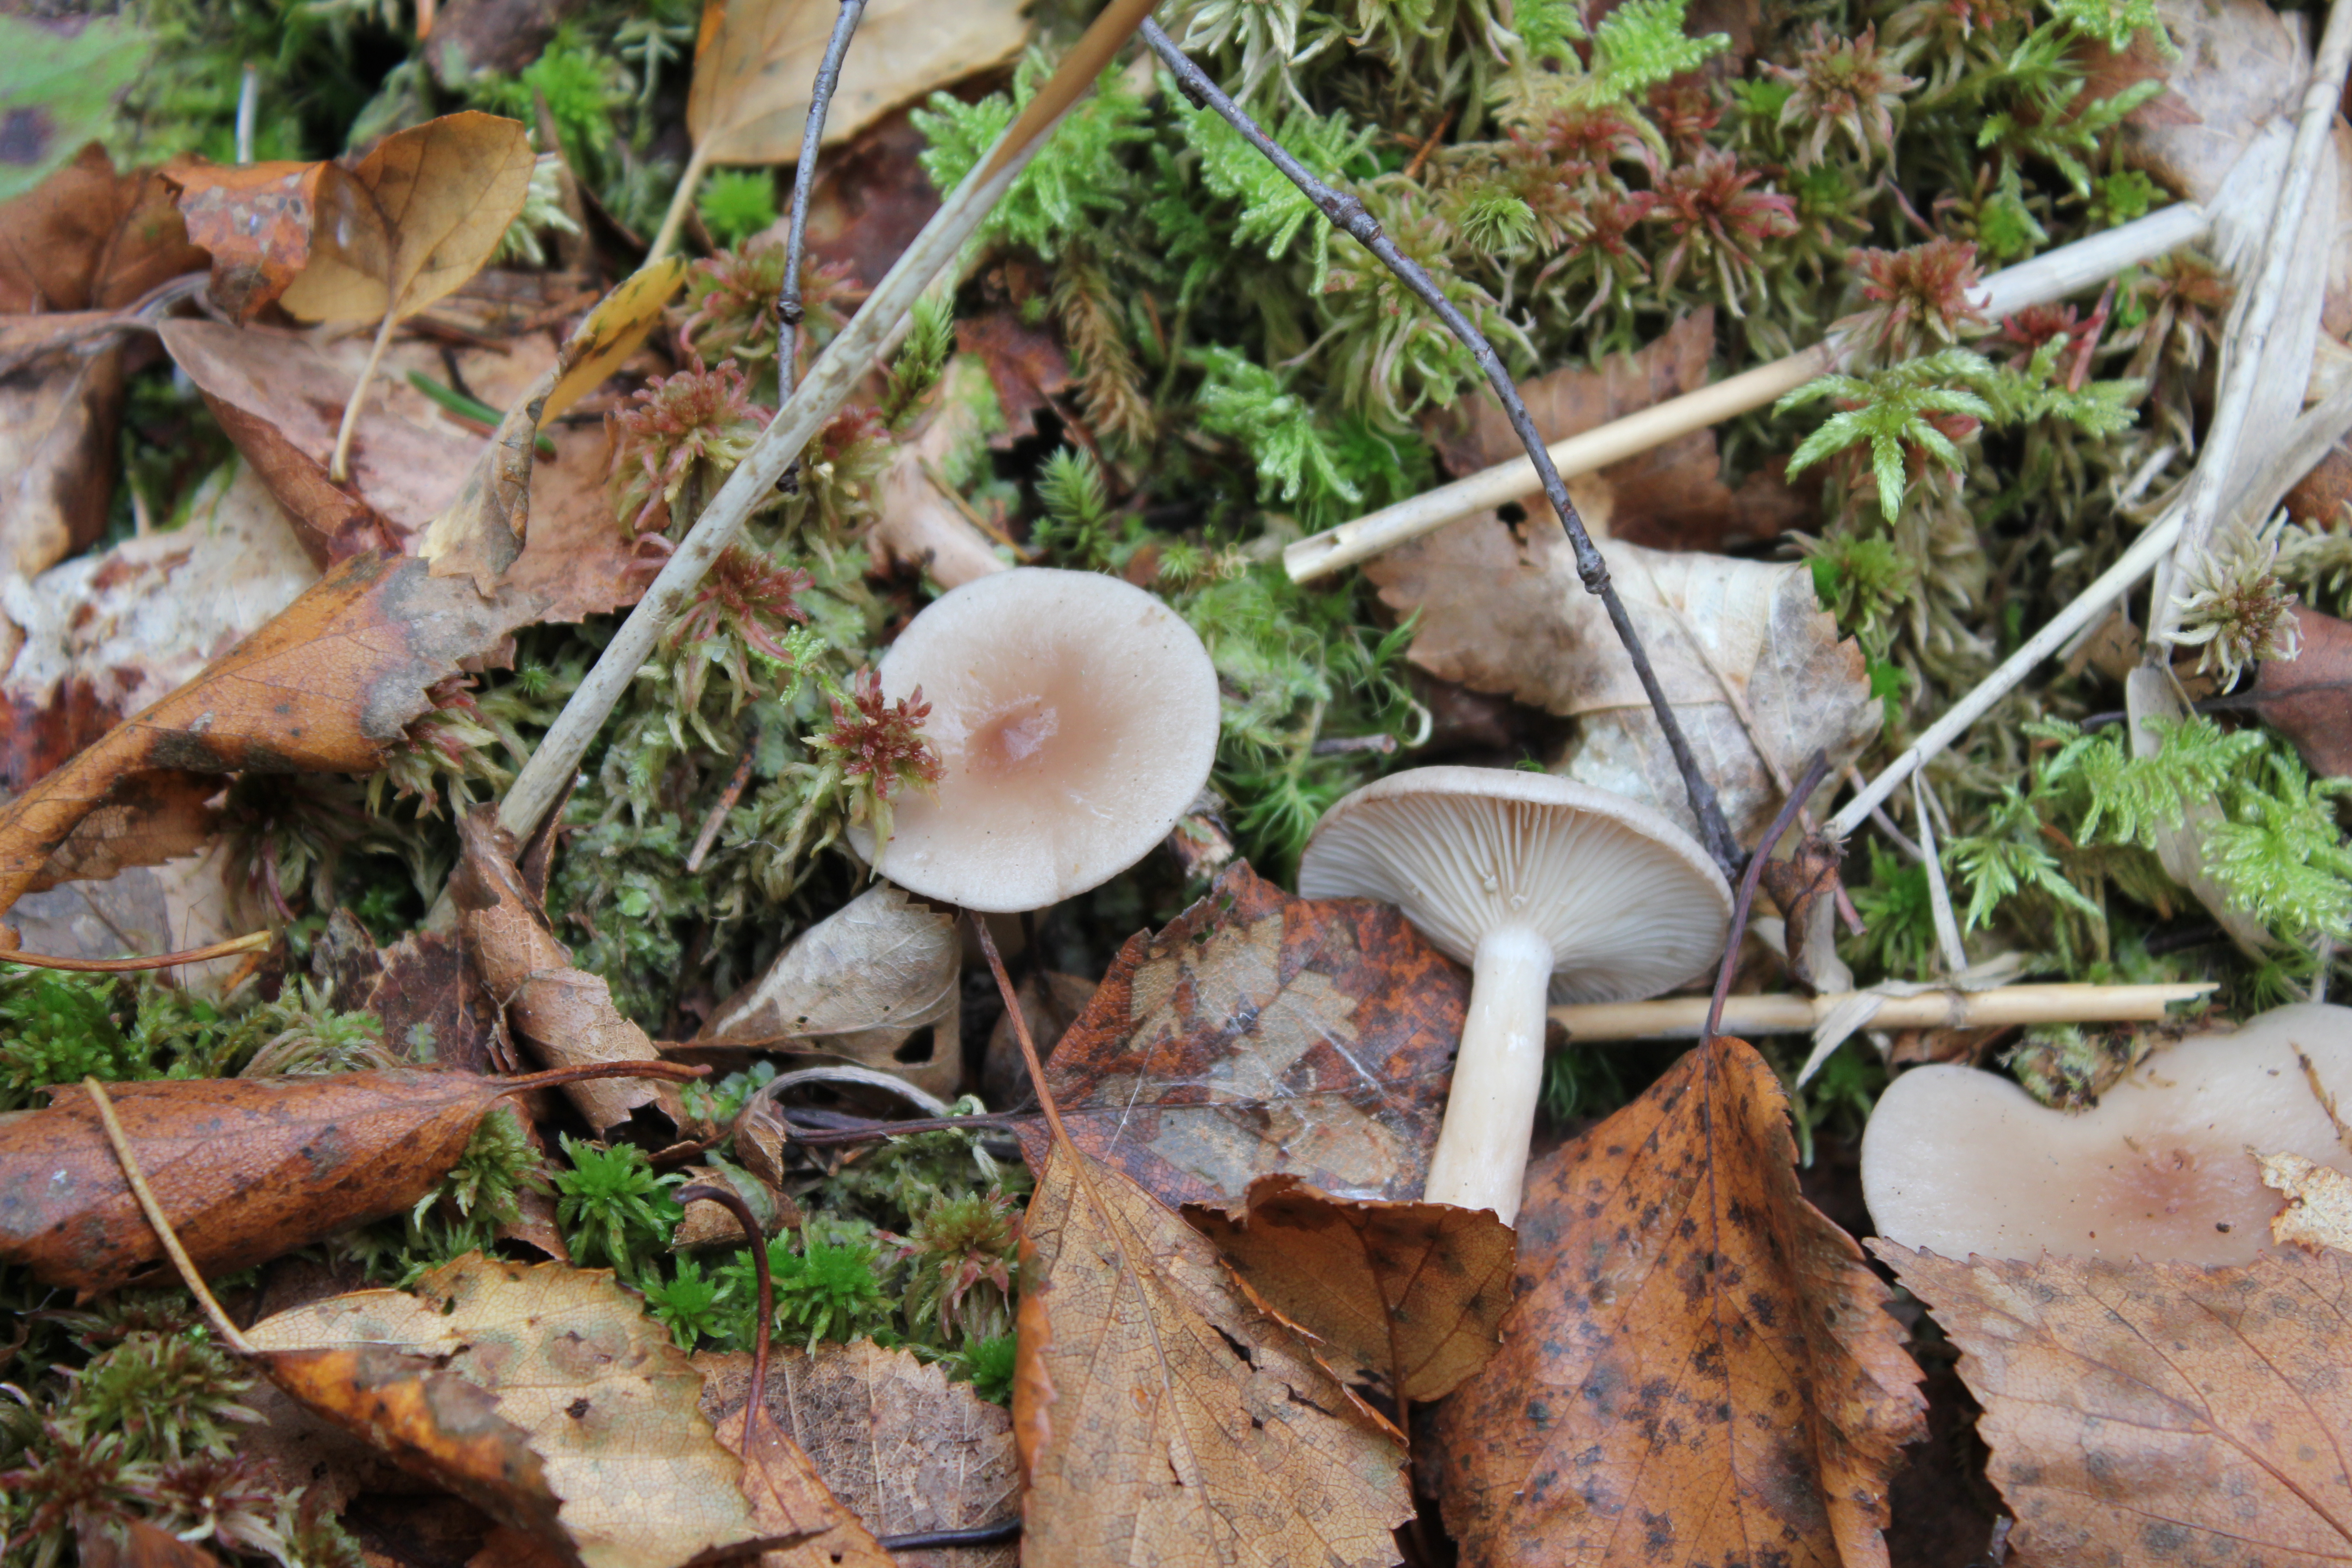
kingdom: Fungi
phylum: Basidiomycota
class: Agaricomycetes
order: Russulales
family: Russulaceae
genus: Lactarius
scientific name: Lactarius vietus
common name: Grey milk-cap
